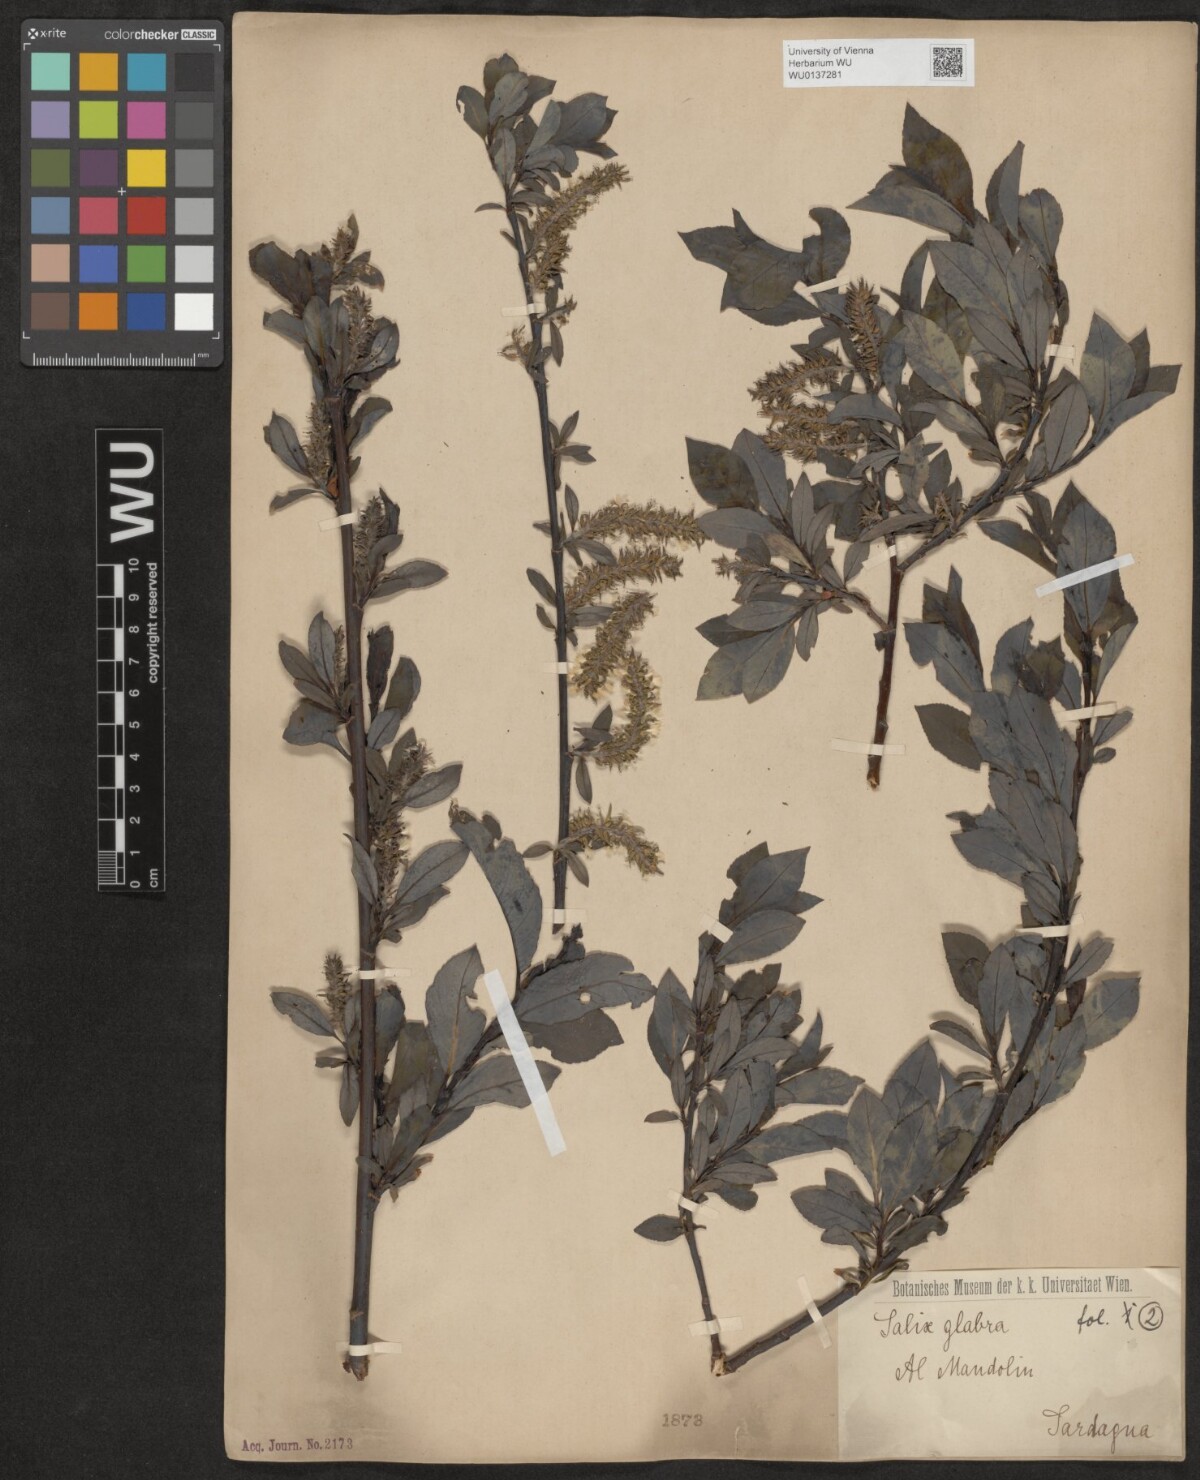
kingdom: Plantae
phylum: Tracheophyta
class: Magnoliopsida
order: Malpighiales
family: Salicaceae
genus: Salix
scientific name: Salix glabra
